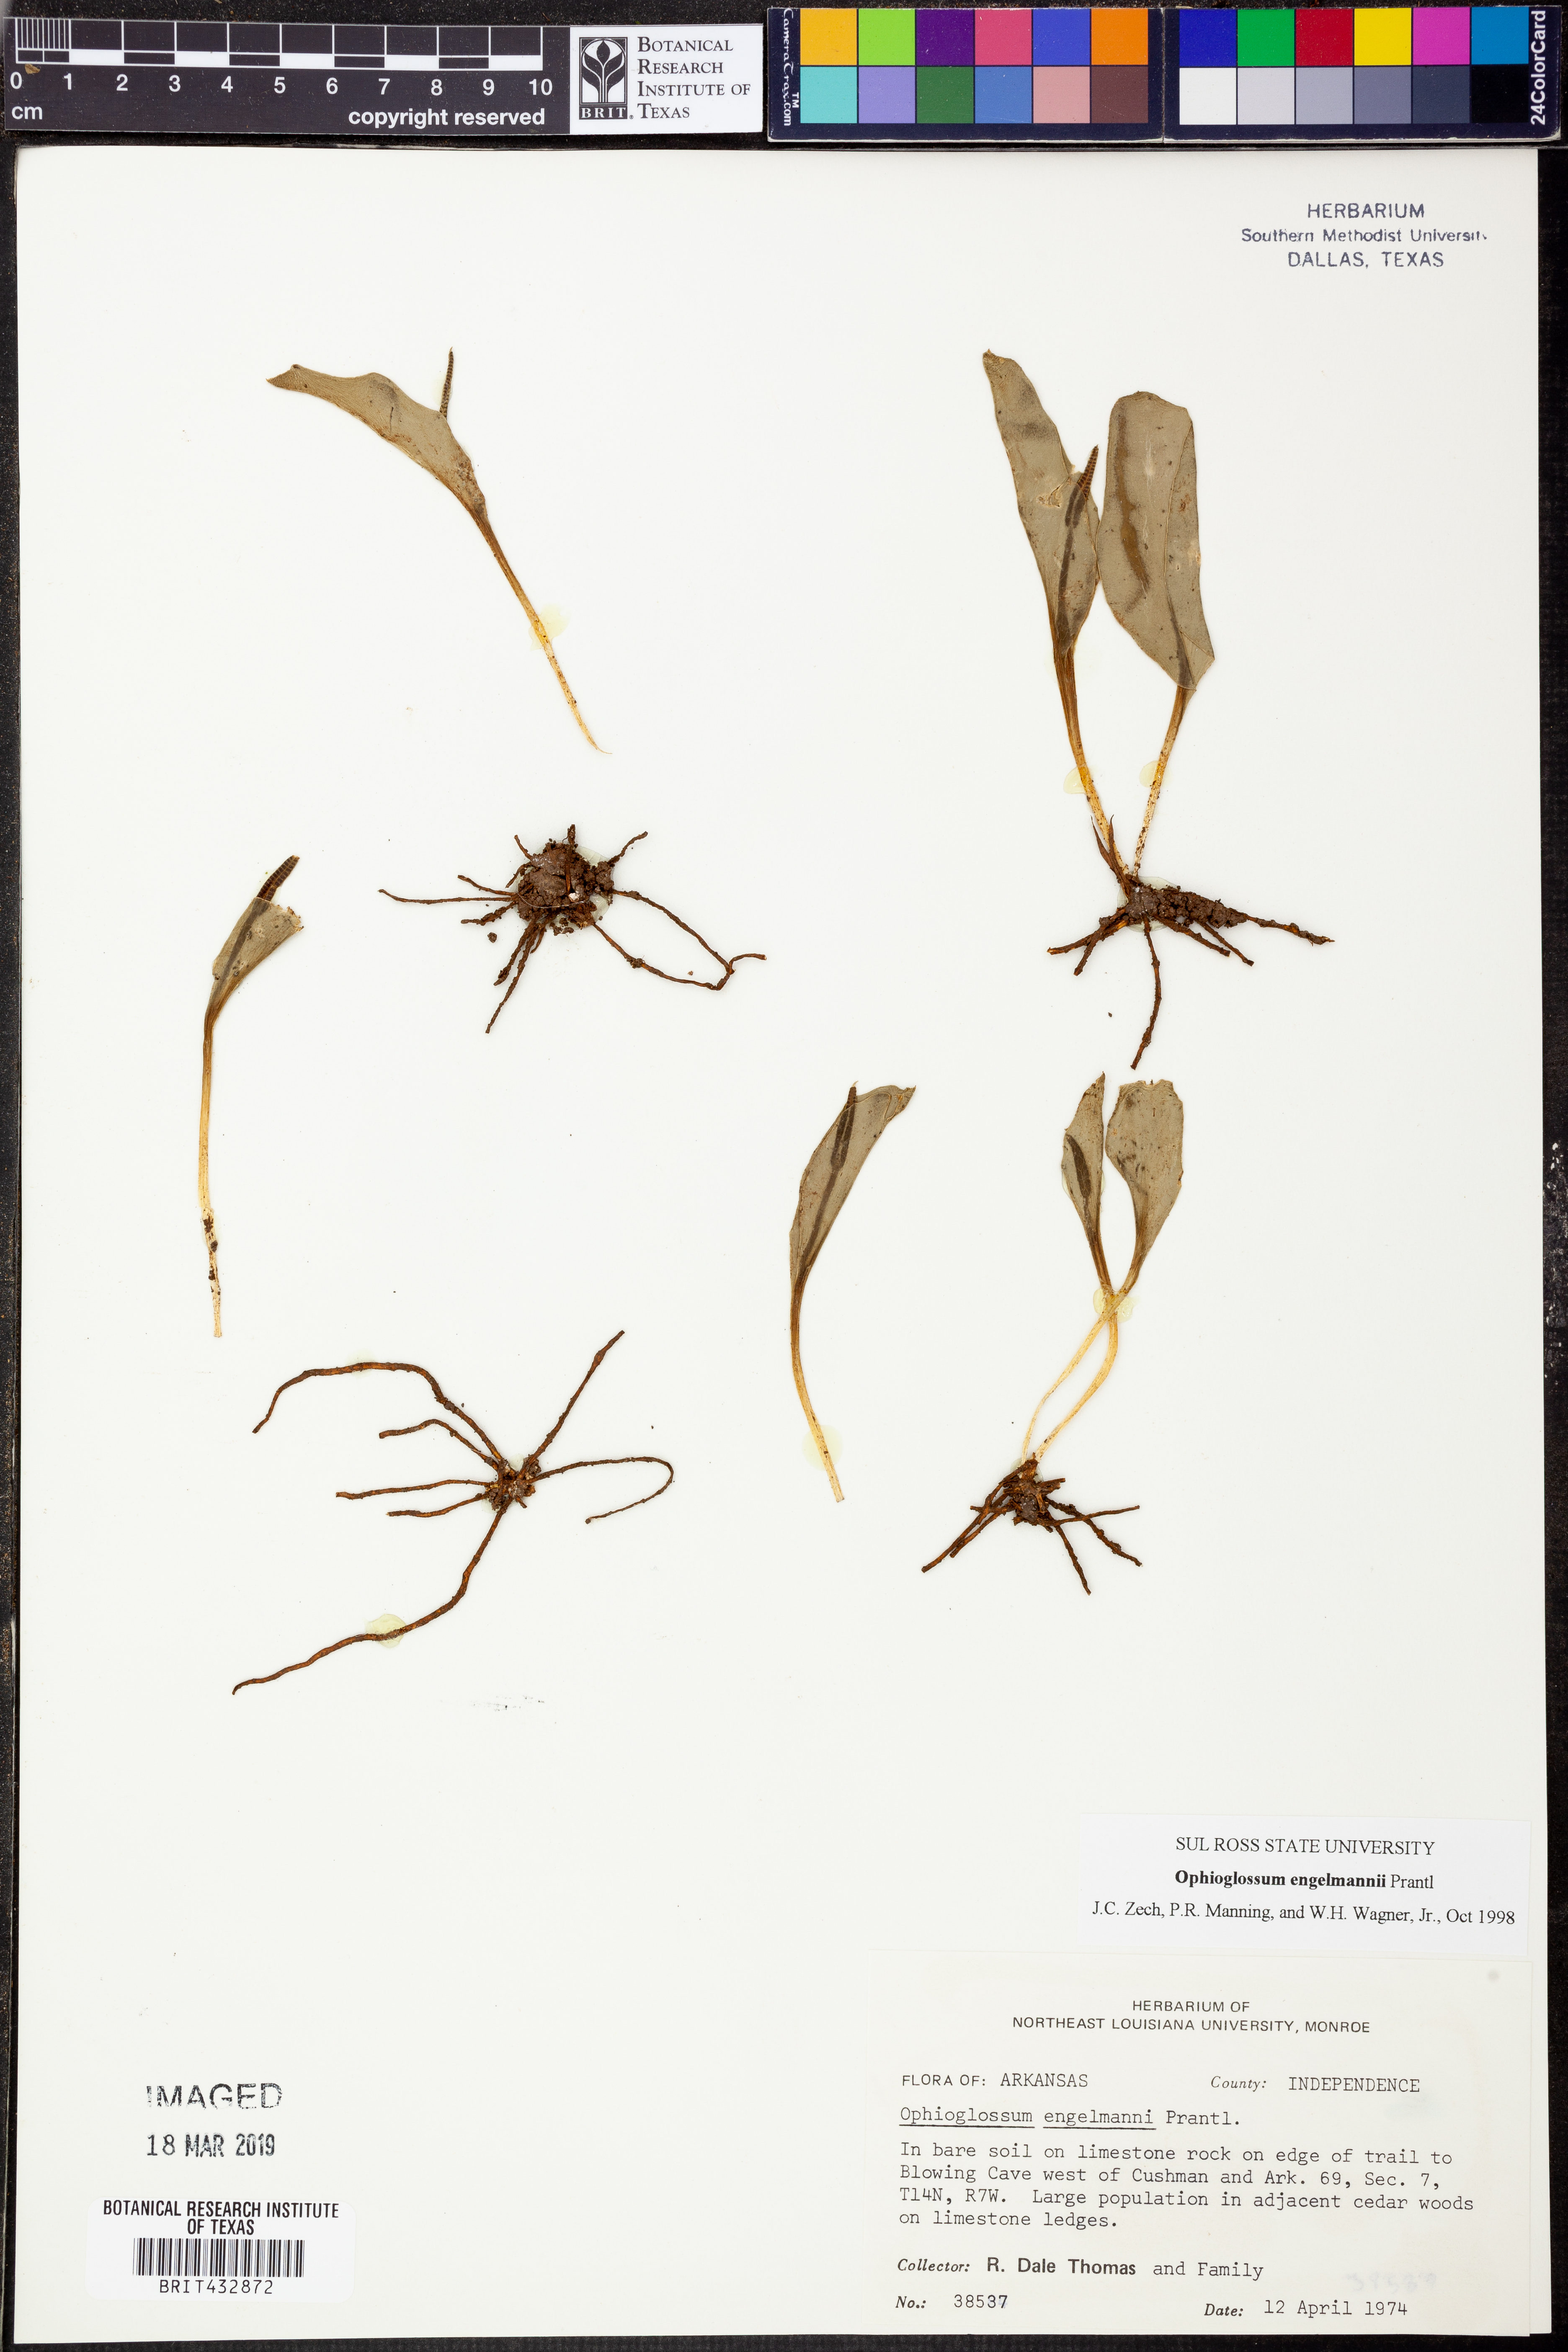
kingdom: Plantae
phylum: Tracheophyta
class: Polypodiopsida
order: Ophioglossales
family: Ophioglossaceae
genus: Ophioglossum
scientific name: Ophioglossum engelmannii
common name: Limestone adder's-tongue
